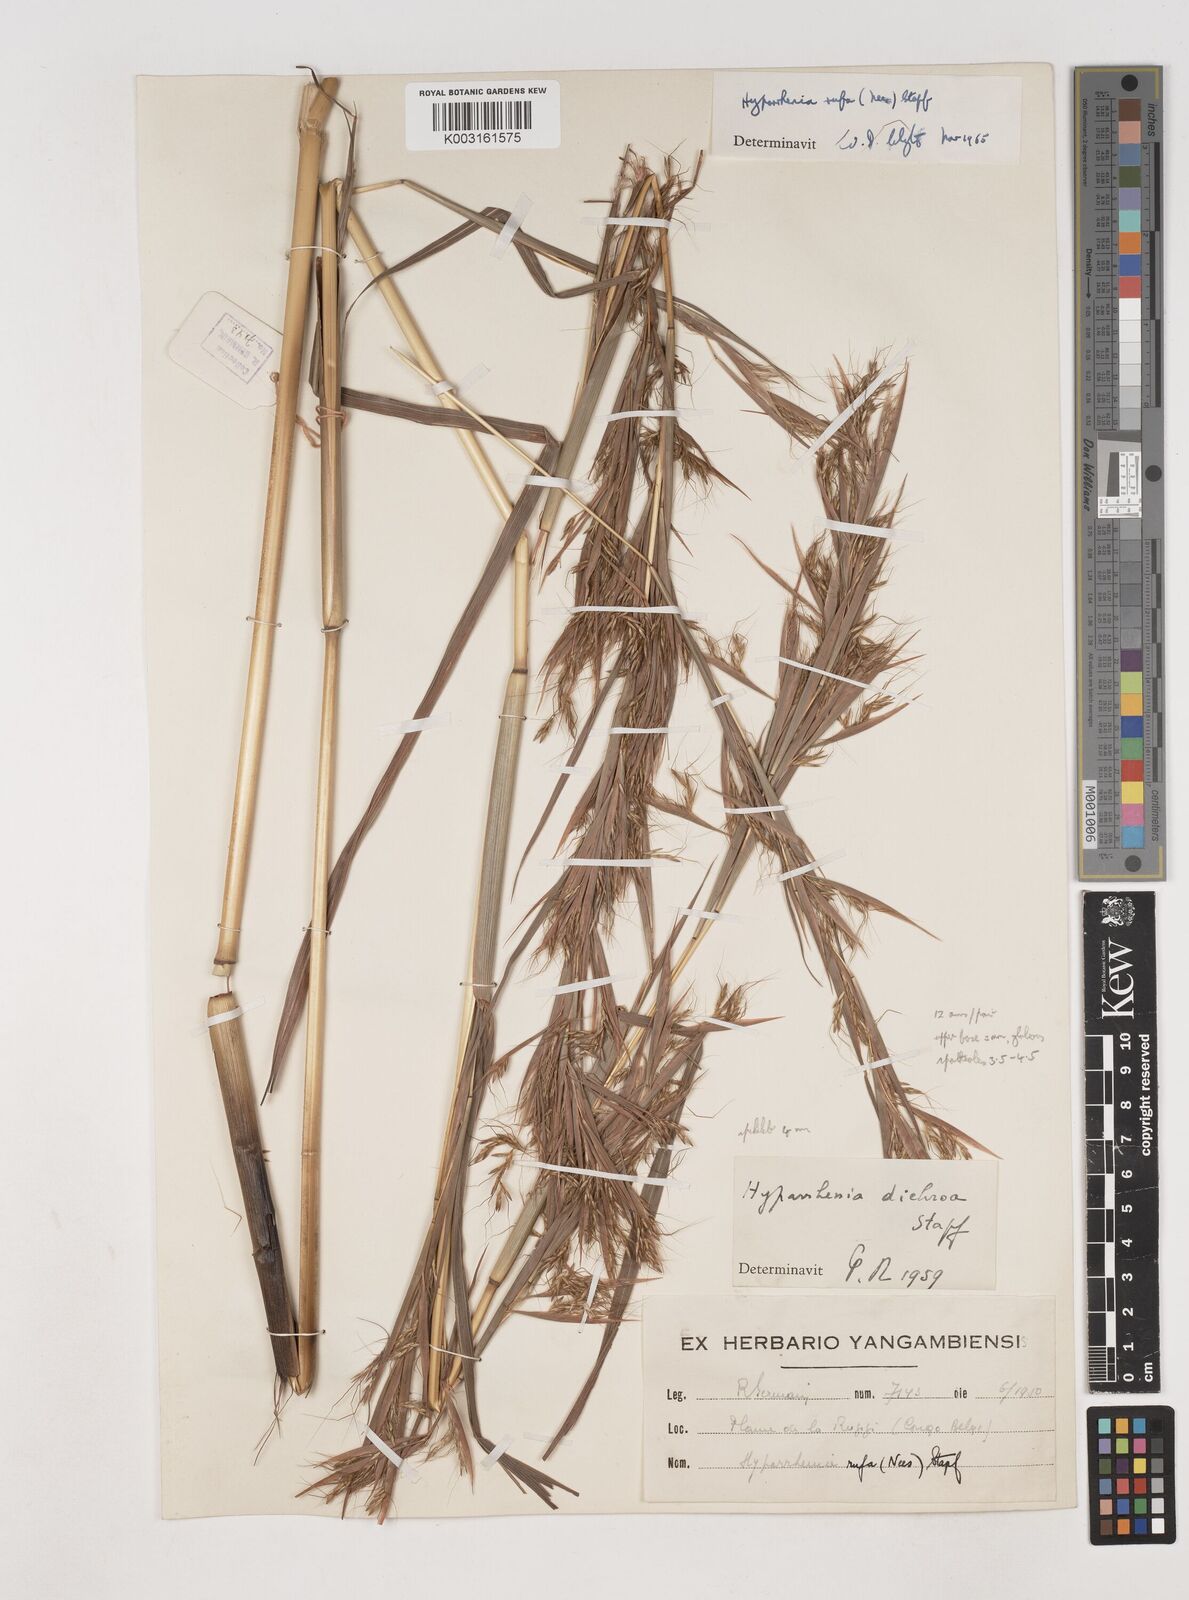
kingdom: Plantae
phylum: Tracheophyta
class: Liliopsida
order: Poales
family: Poaceae
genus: Hyparrhenia
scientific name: Hyparrhenia rufa
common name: Jaraguagrass
